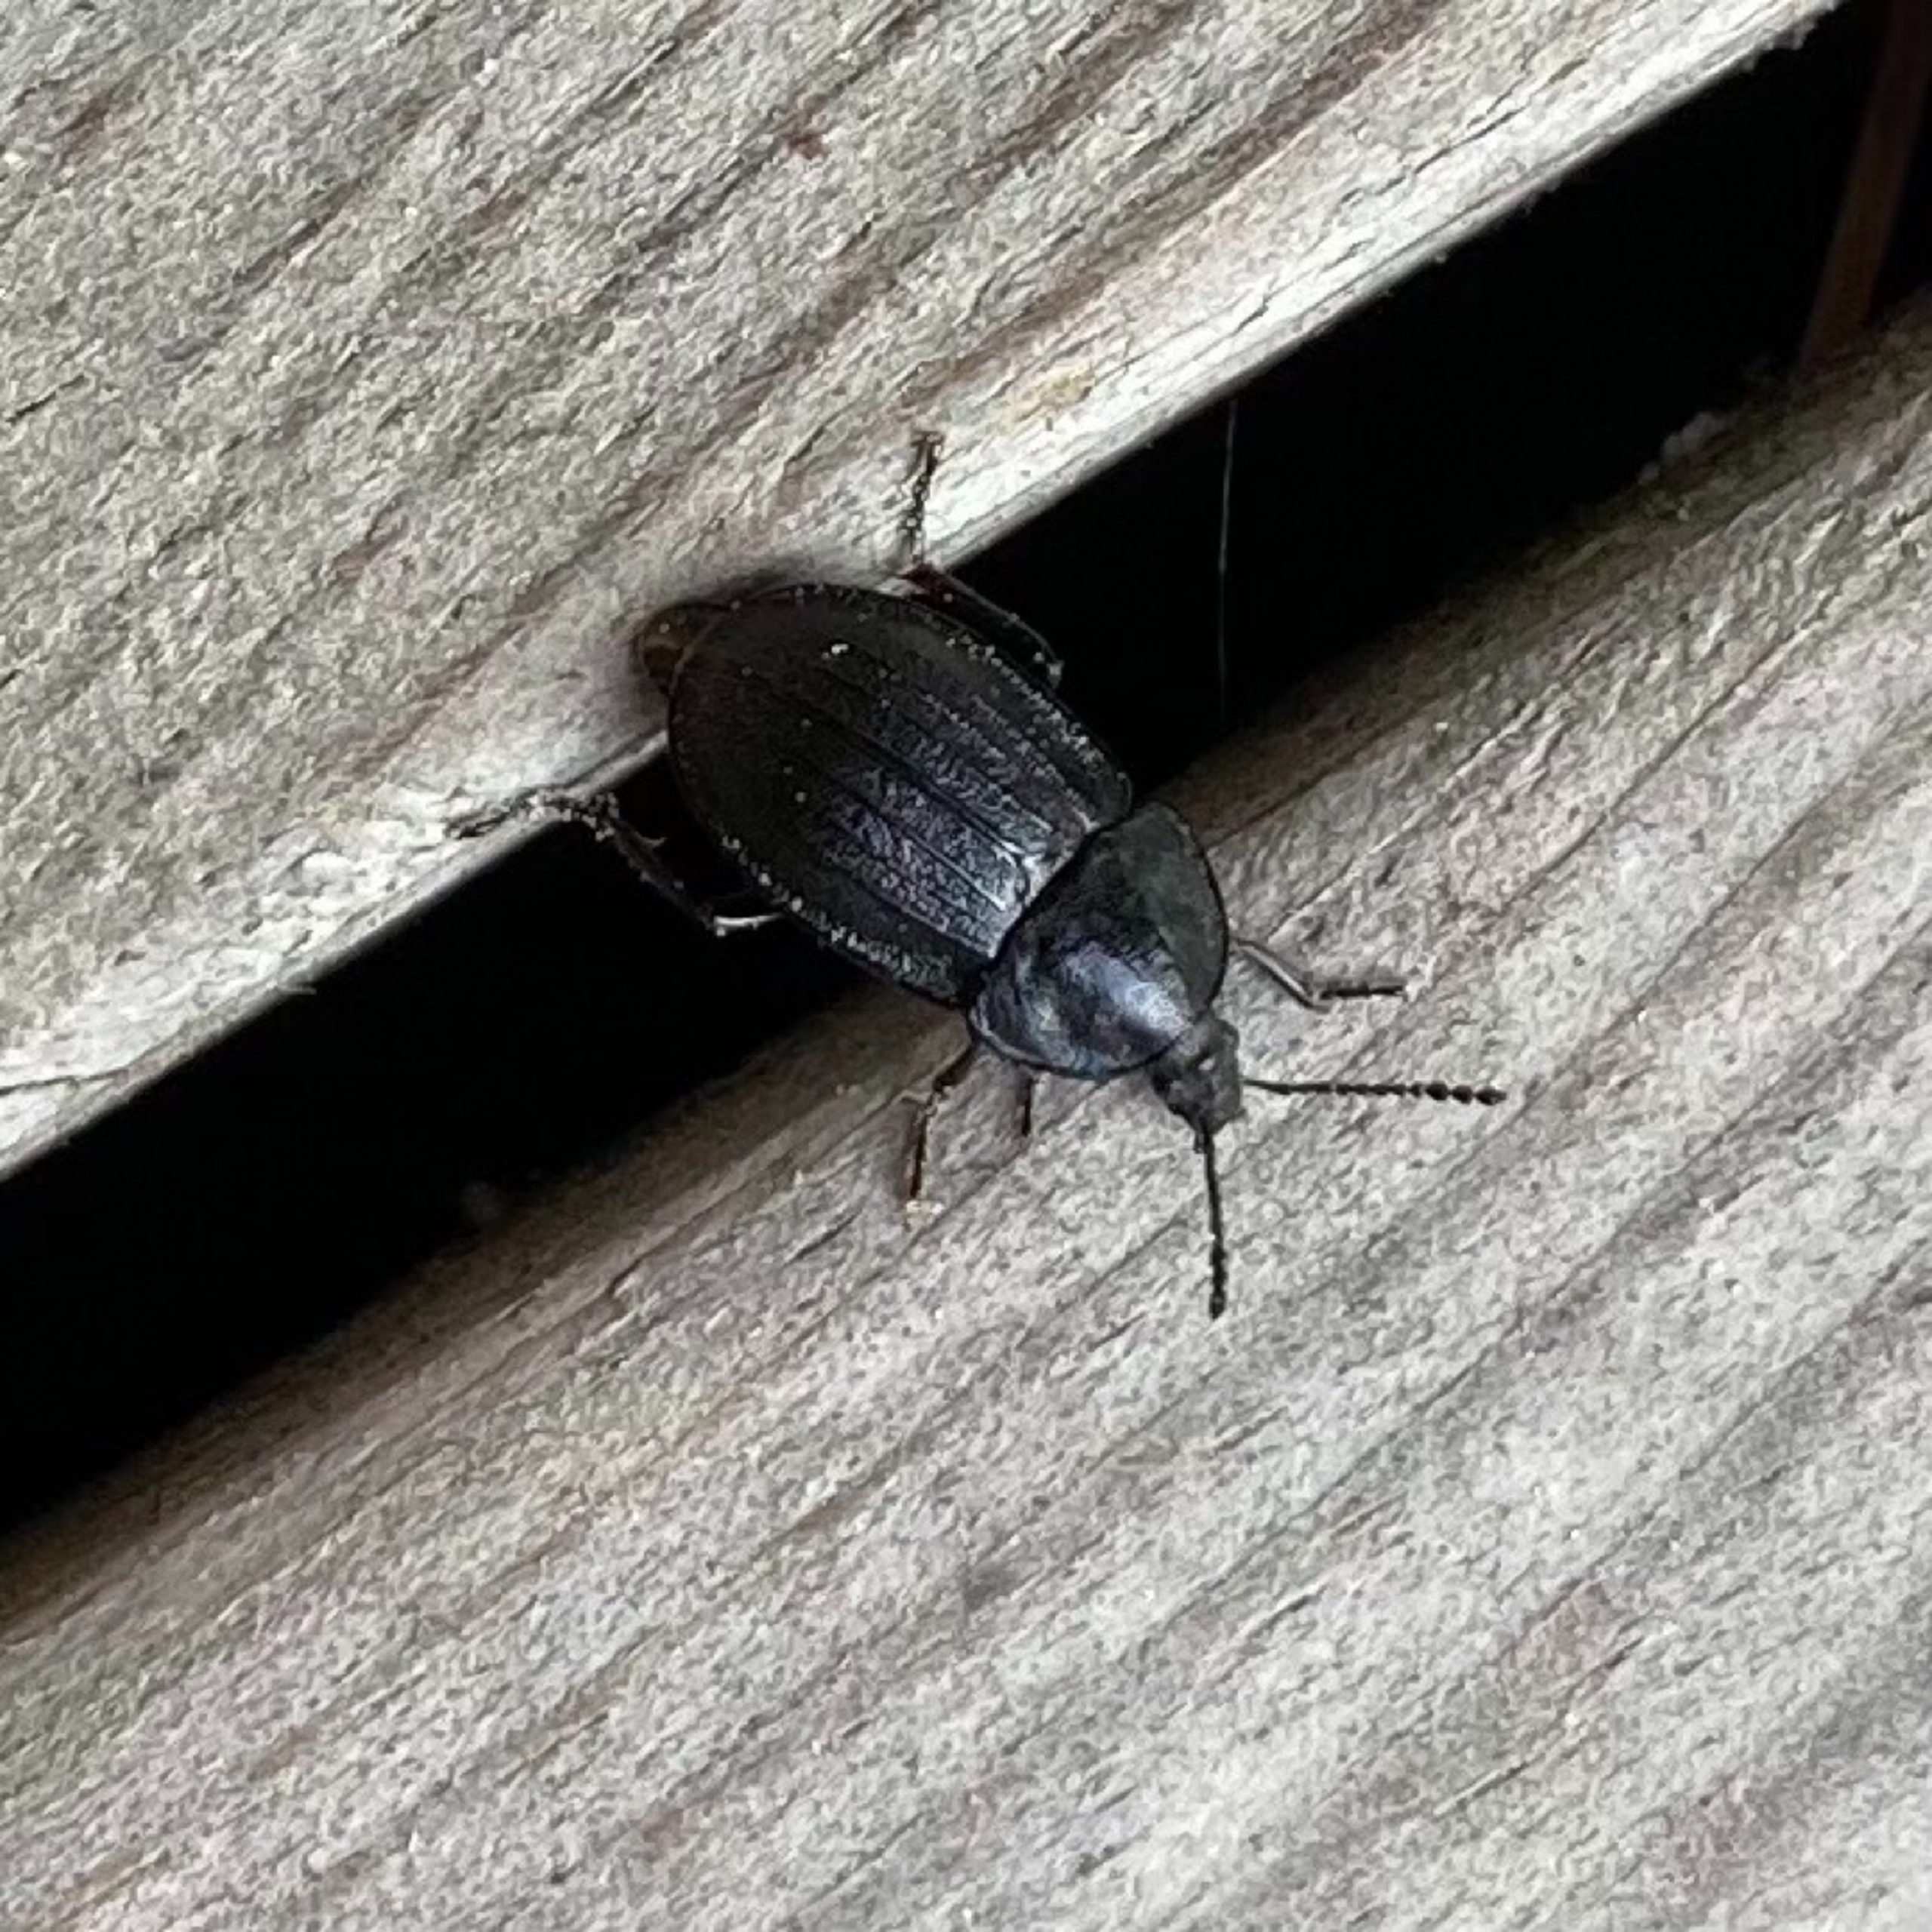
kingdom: Animalia
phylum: Arthropoda
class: Insecta
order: Coleoptera
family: Staphylinidae
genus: Silpha
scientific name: Silpha atrata
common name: Snegleådselbille
